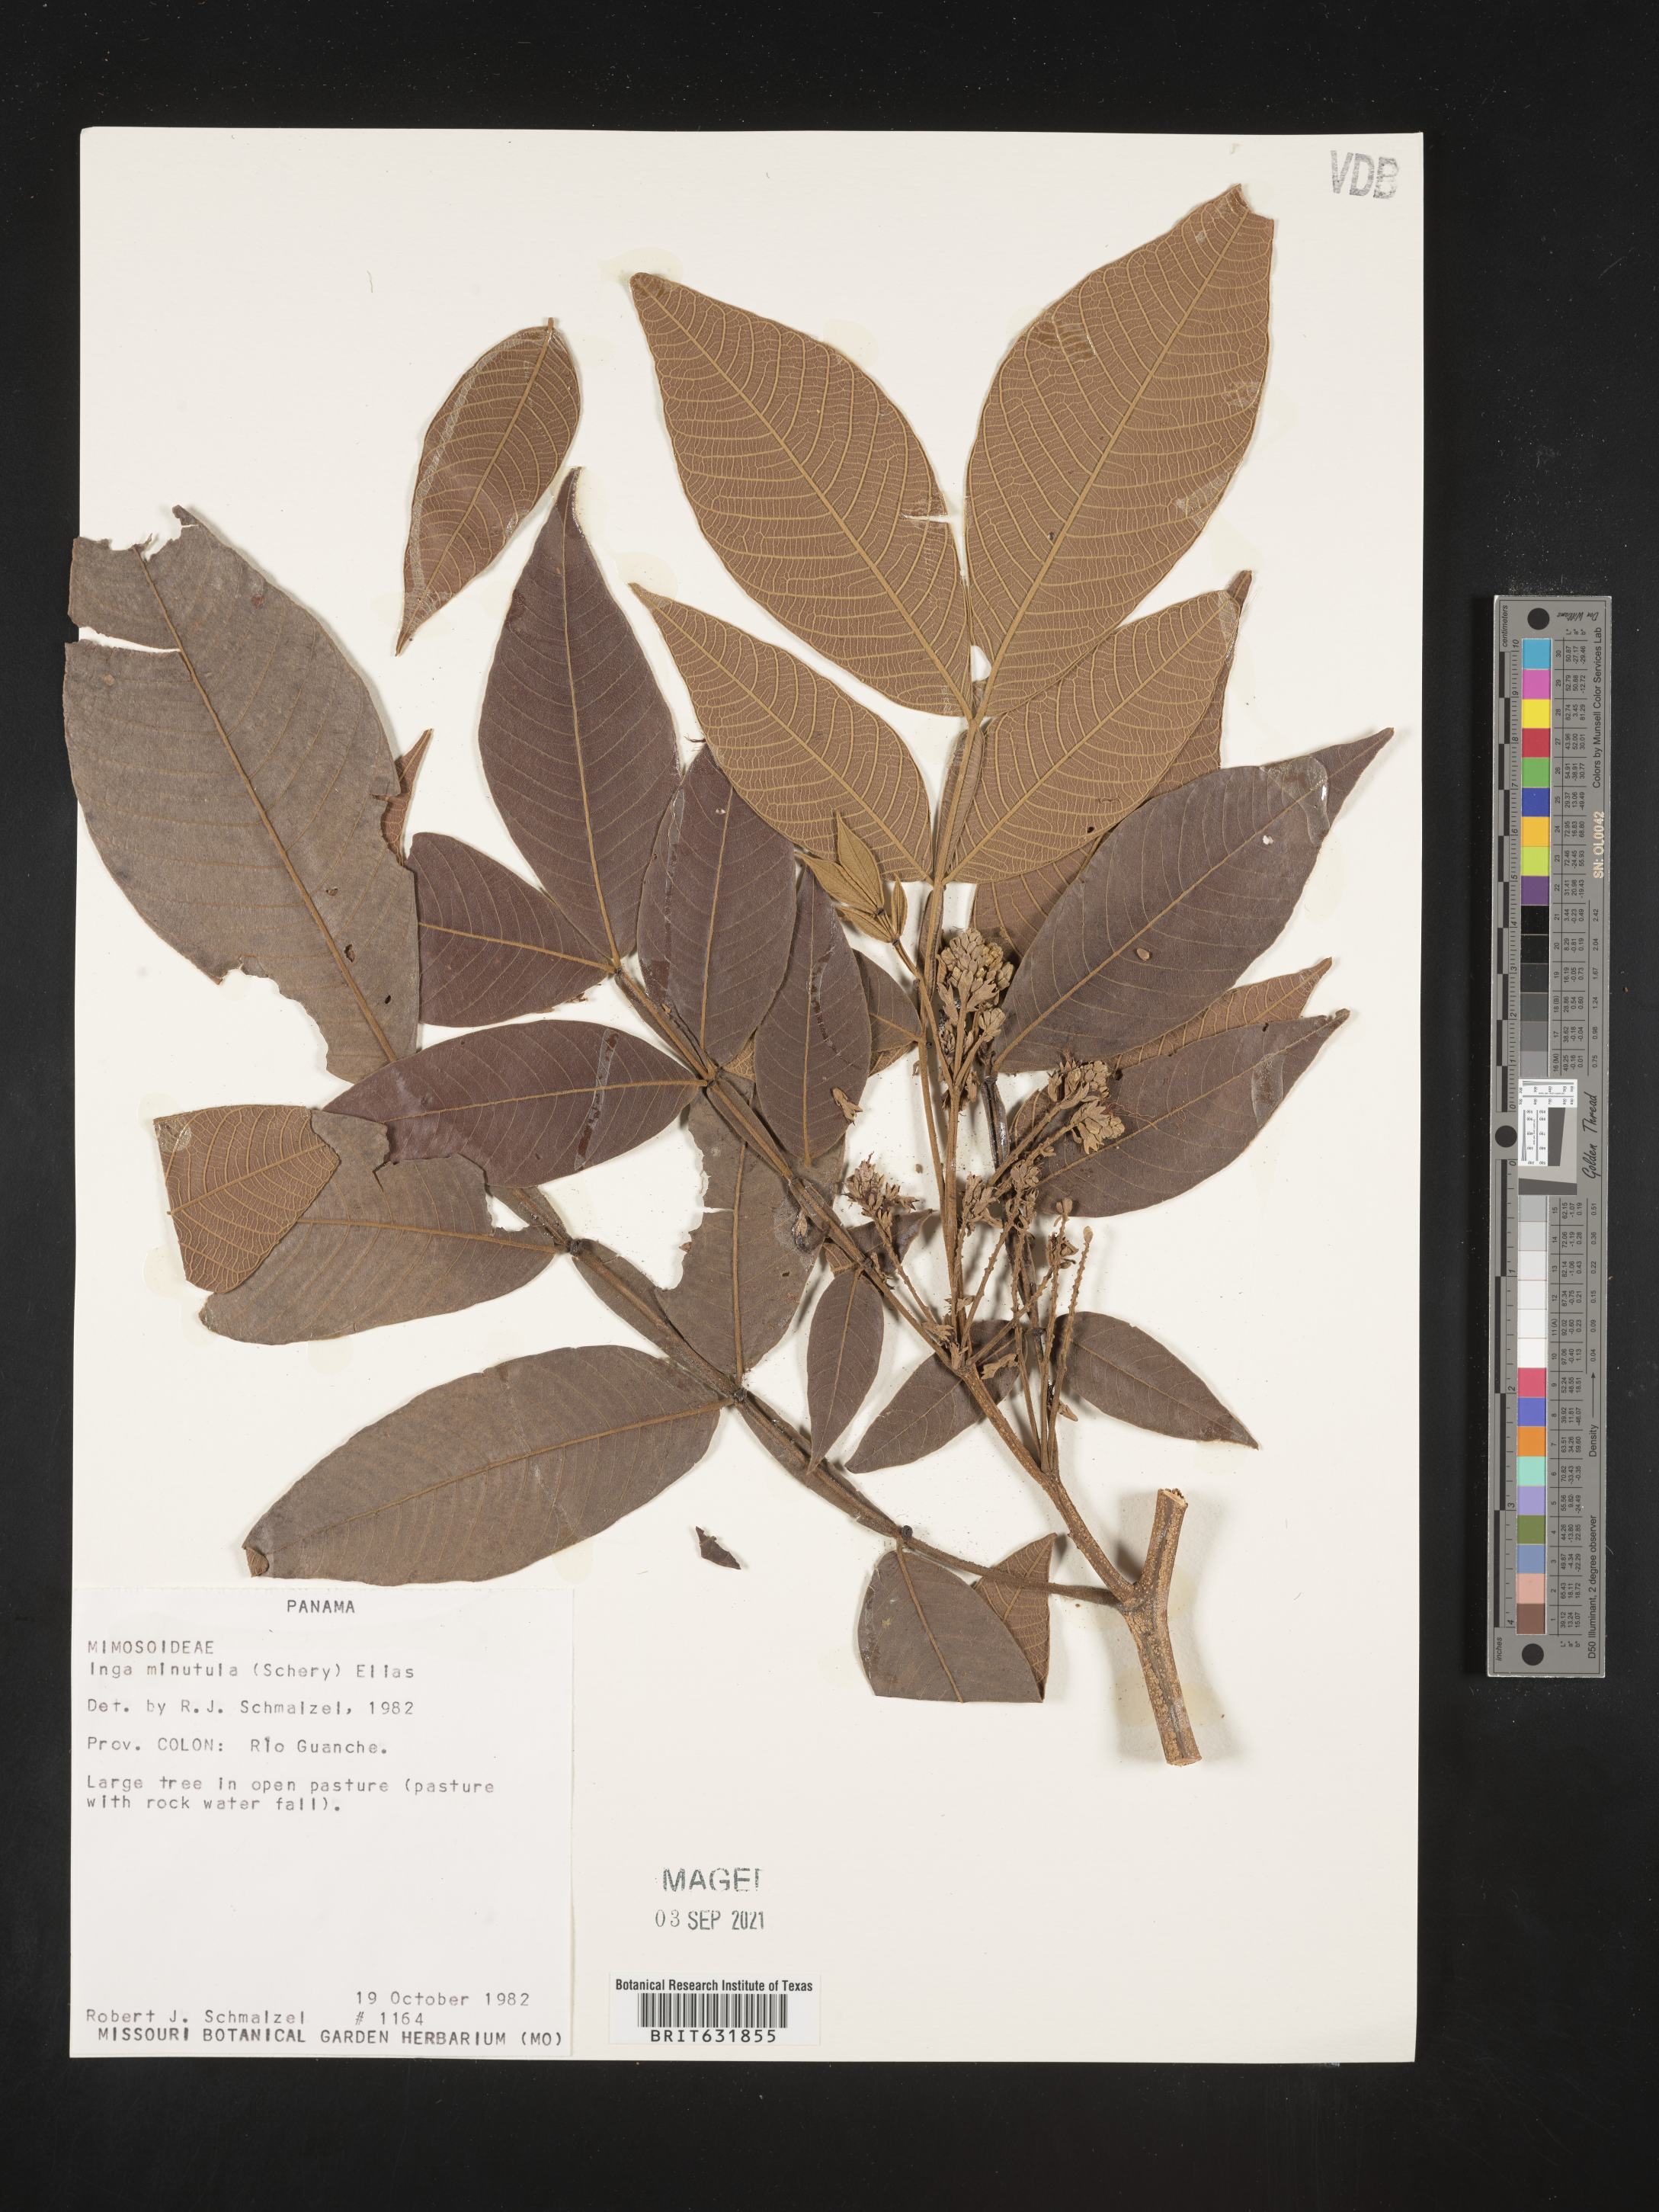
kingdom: Plantae
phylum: Tracheophyta
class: Magnoliopsida
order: Fabales
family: Fabaceae
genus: Inga
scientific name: Inga
